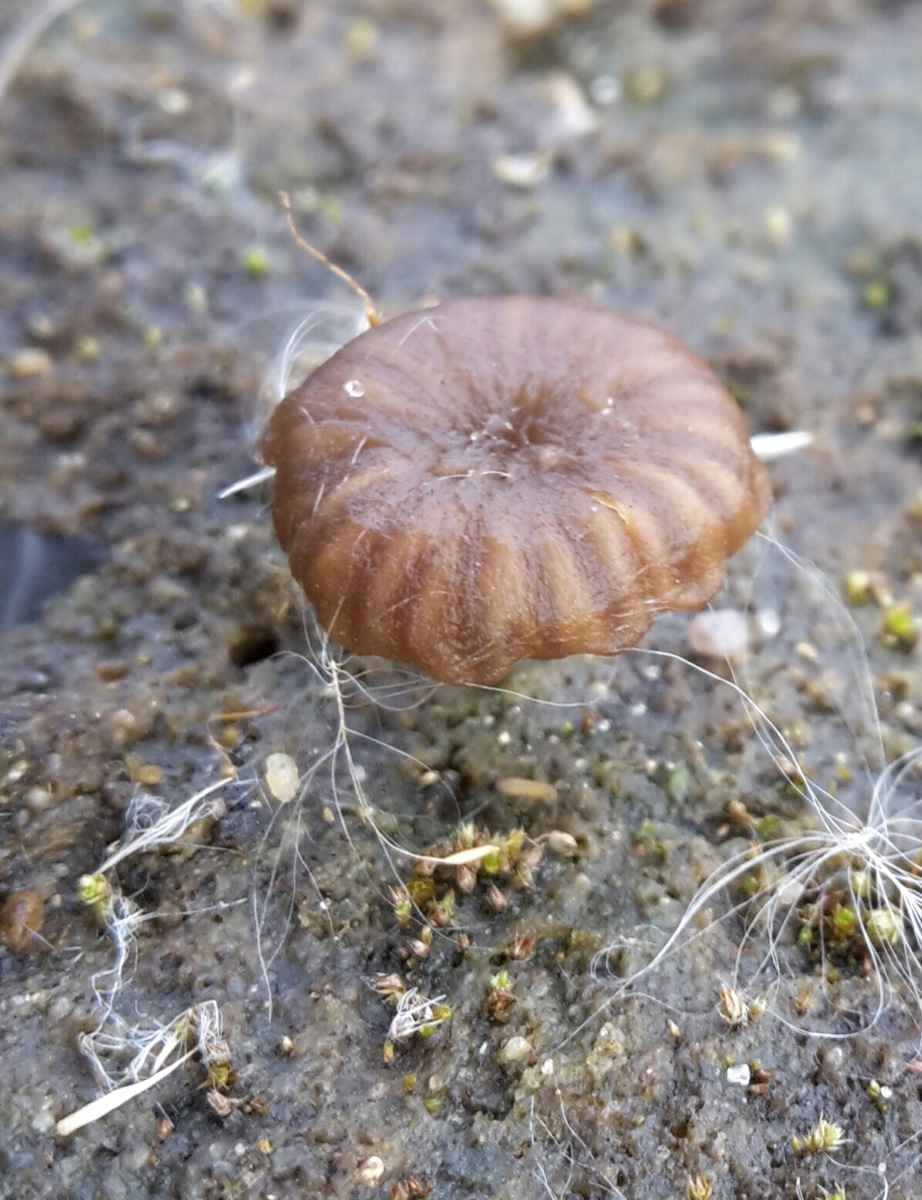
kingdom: Fungi
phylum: Basidiomycota
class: Agaricomycetes
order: Agaricales
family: Hygrophoraceae
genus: Arrhenia
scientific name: Arrhenia obscurata
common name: hede-fontænehat
